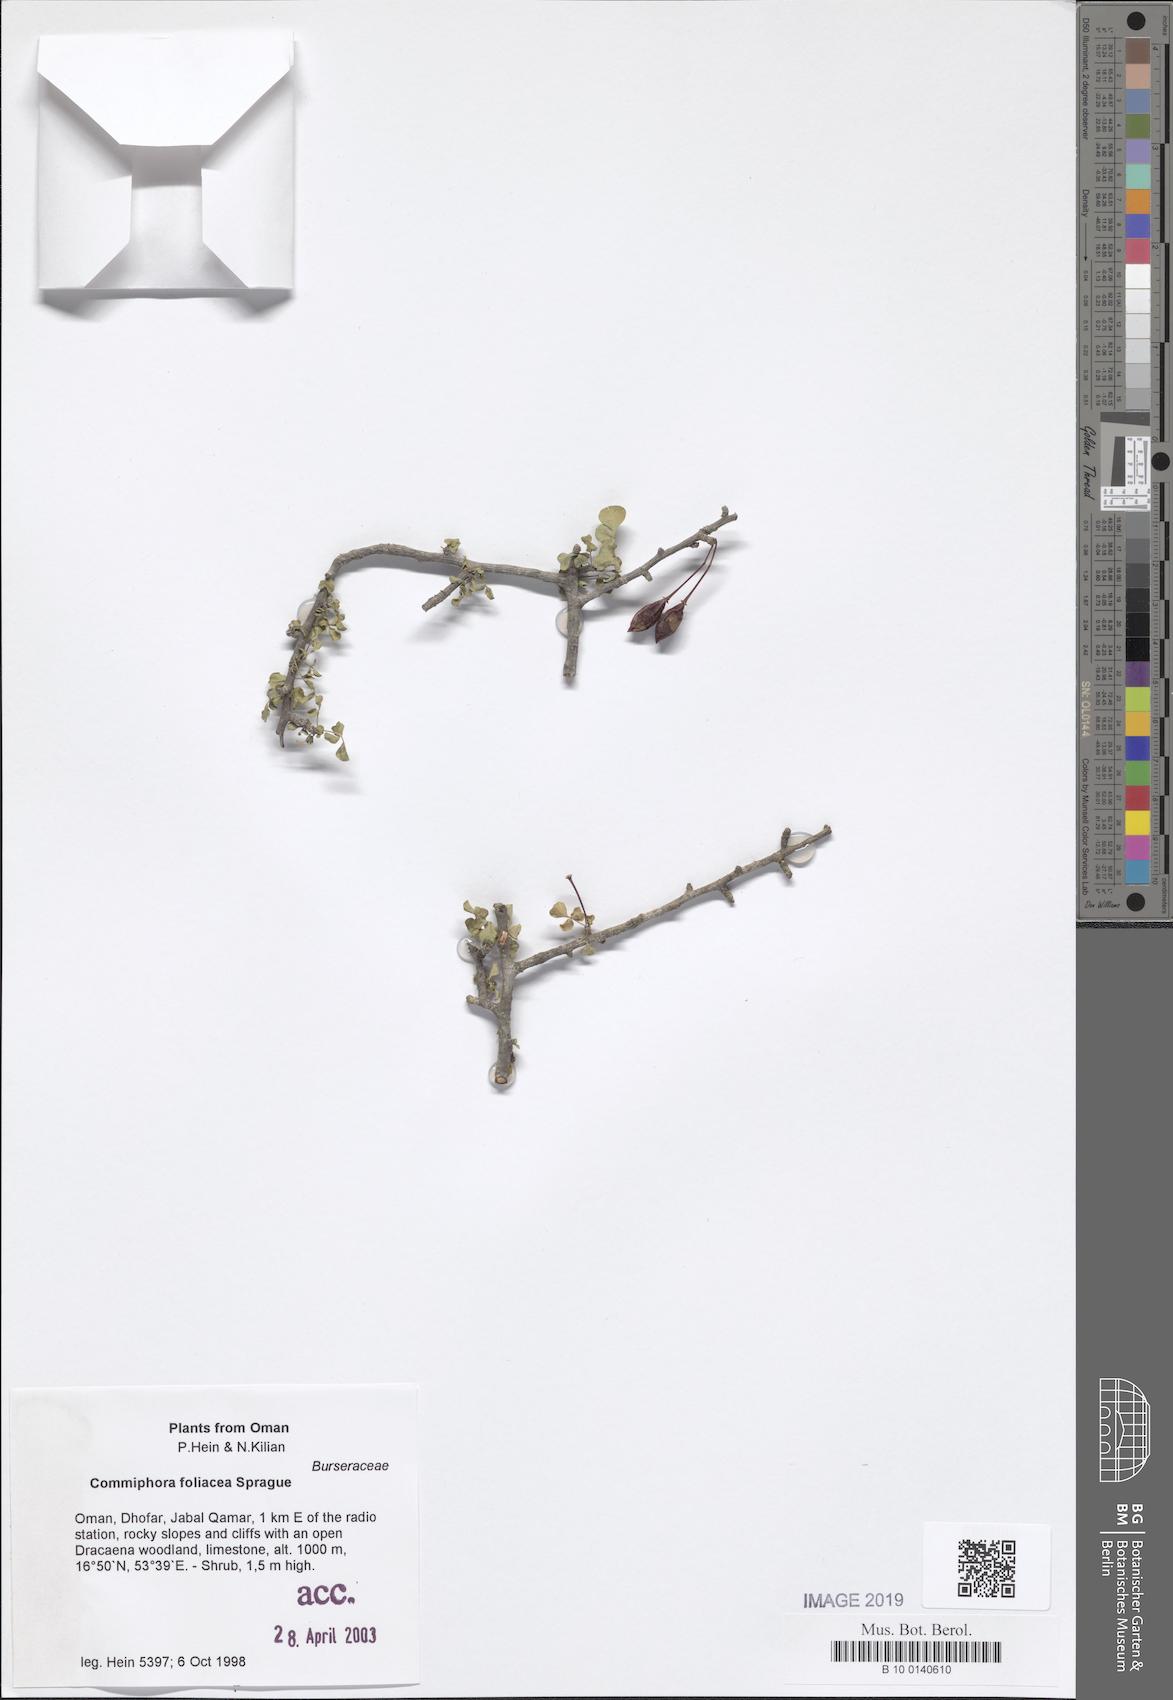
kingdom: Plantae
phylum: Tracheophyta
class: Magnoliopsida
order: Sapindales
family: Burseraceae
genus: Commiphora
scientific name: Commiphora foliacea
